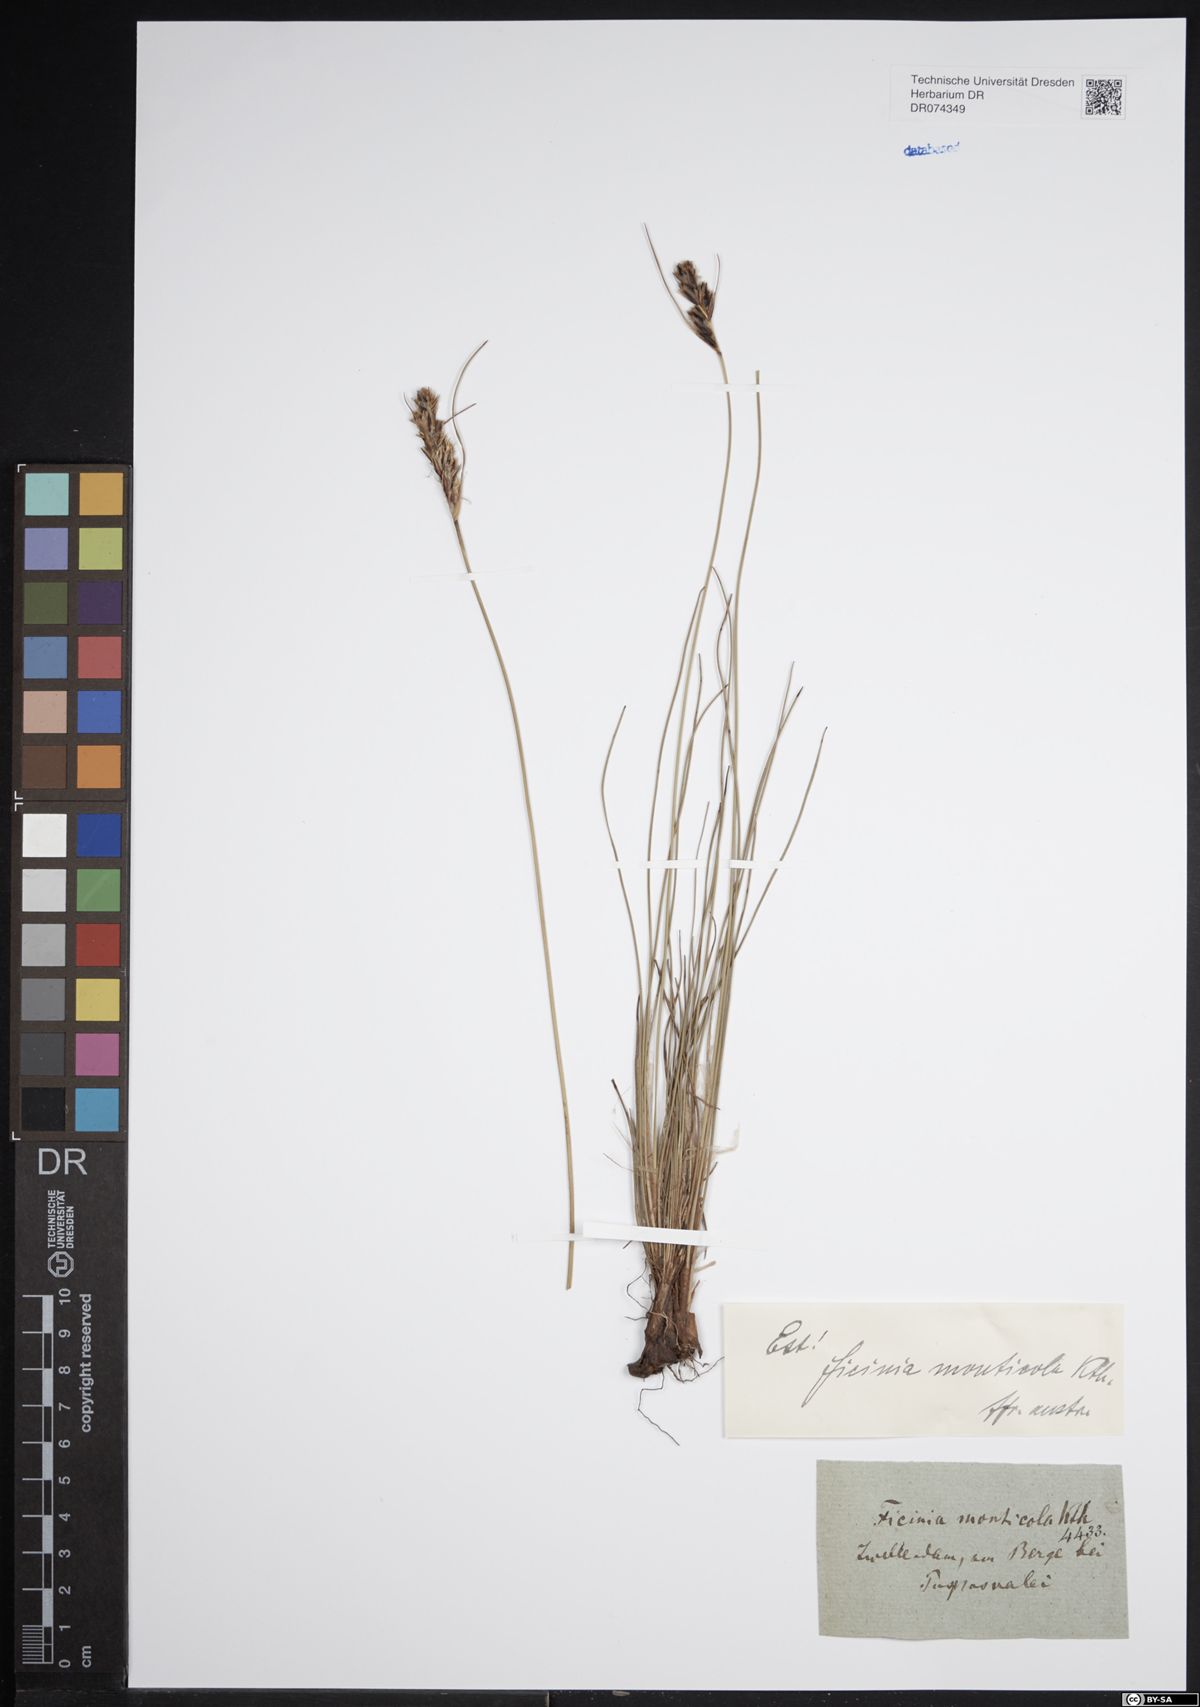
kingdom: Plantae
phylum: Tracheophyta
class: Liliopsida
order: Poales
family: Cyperaceae
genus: Ficinia
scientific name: Ficinia monticola
